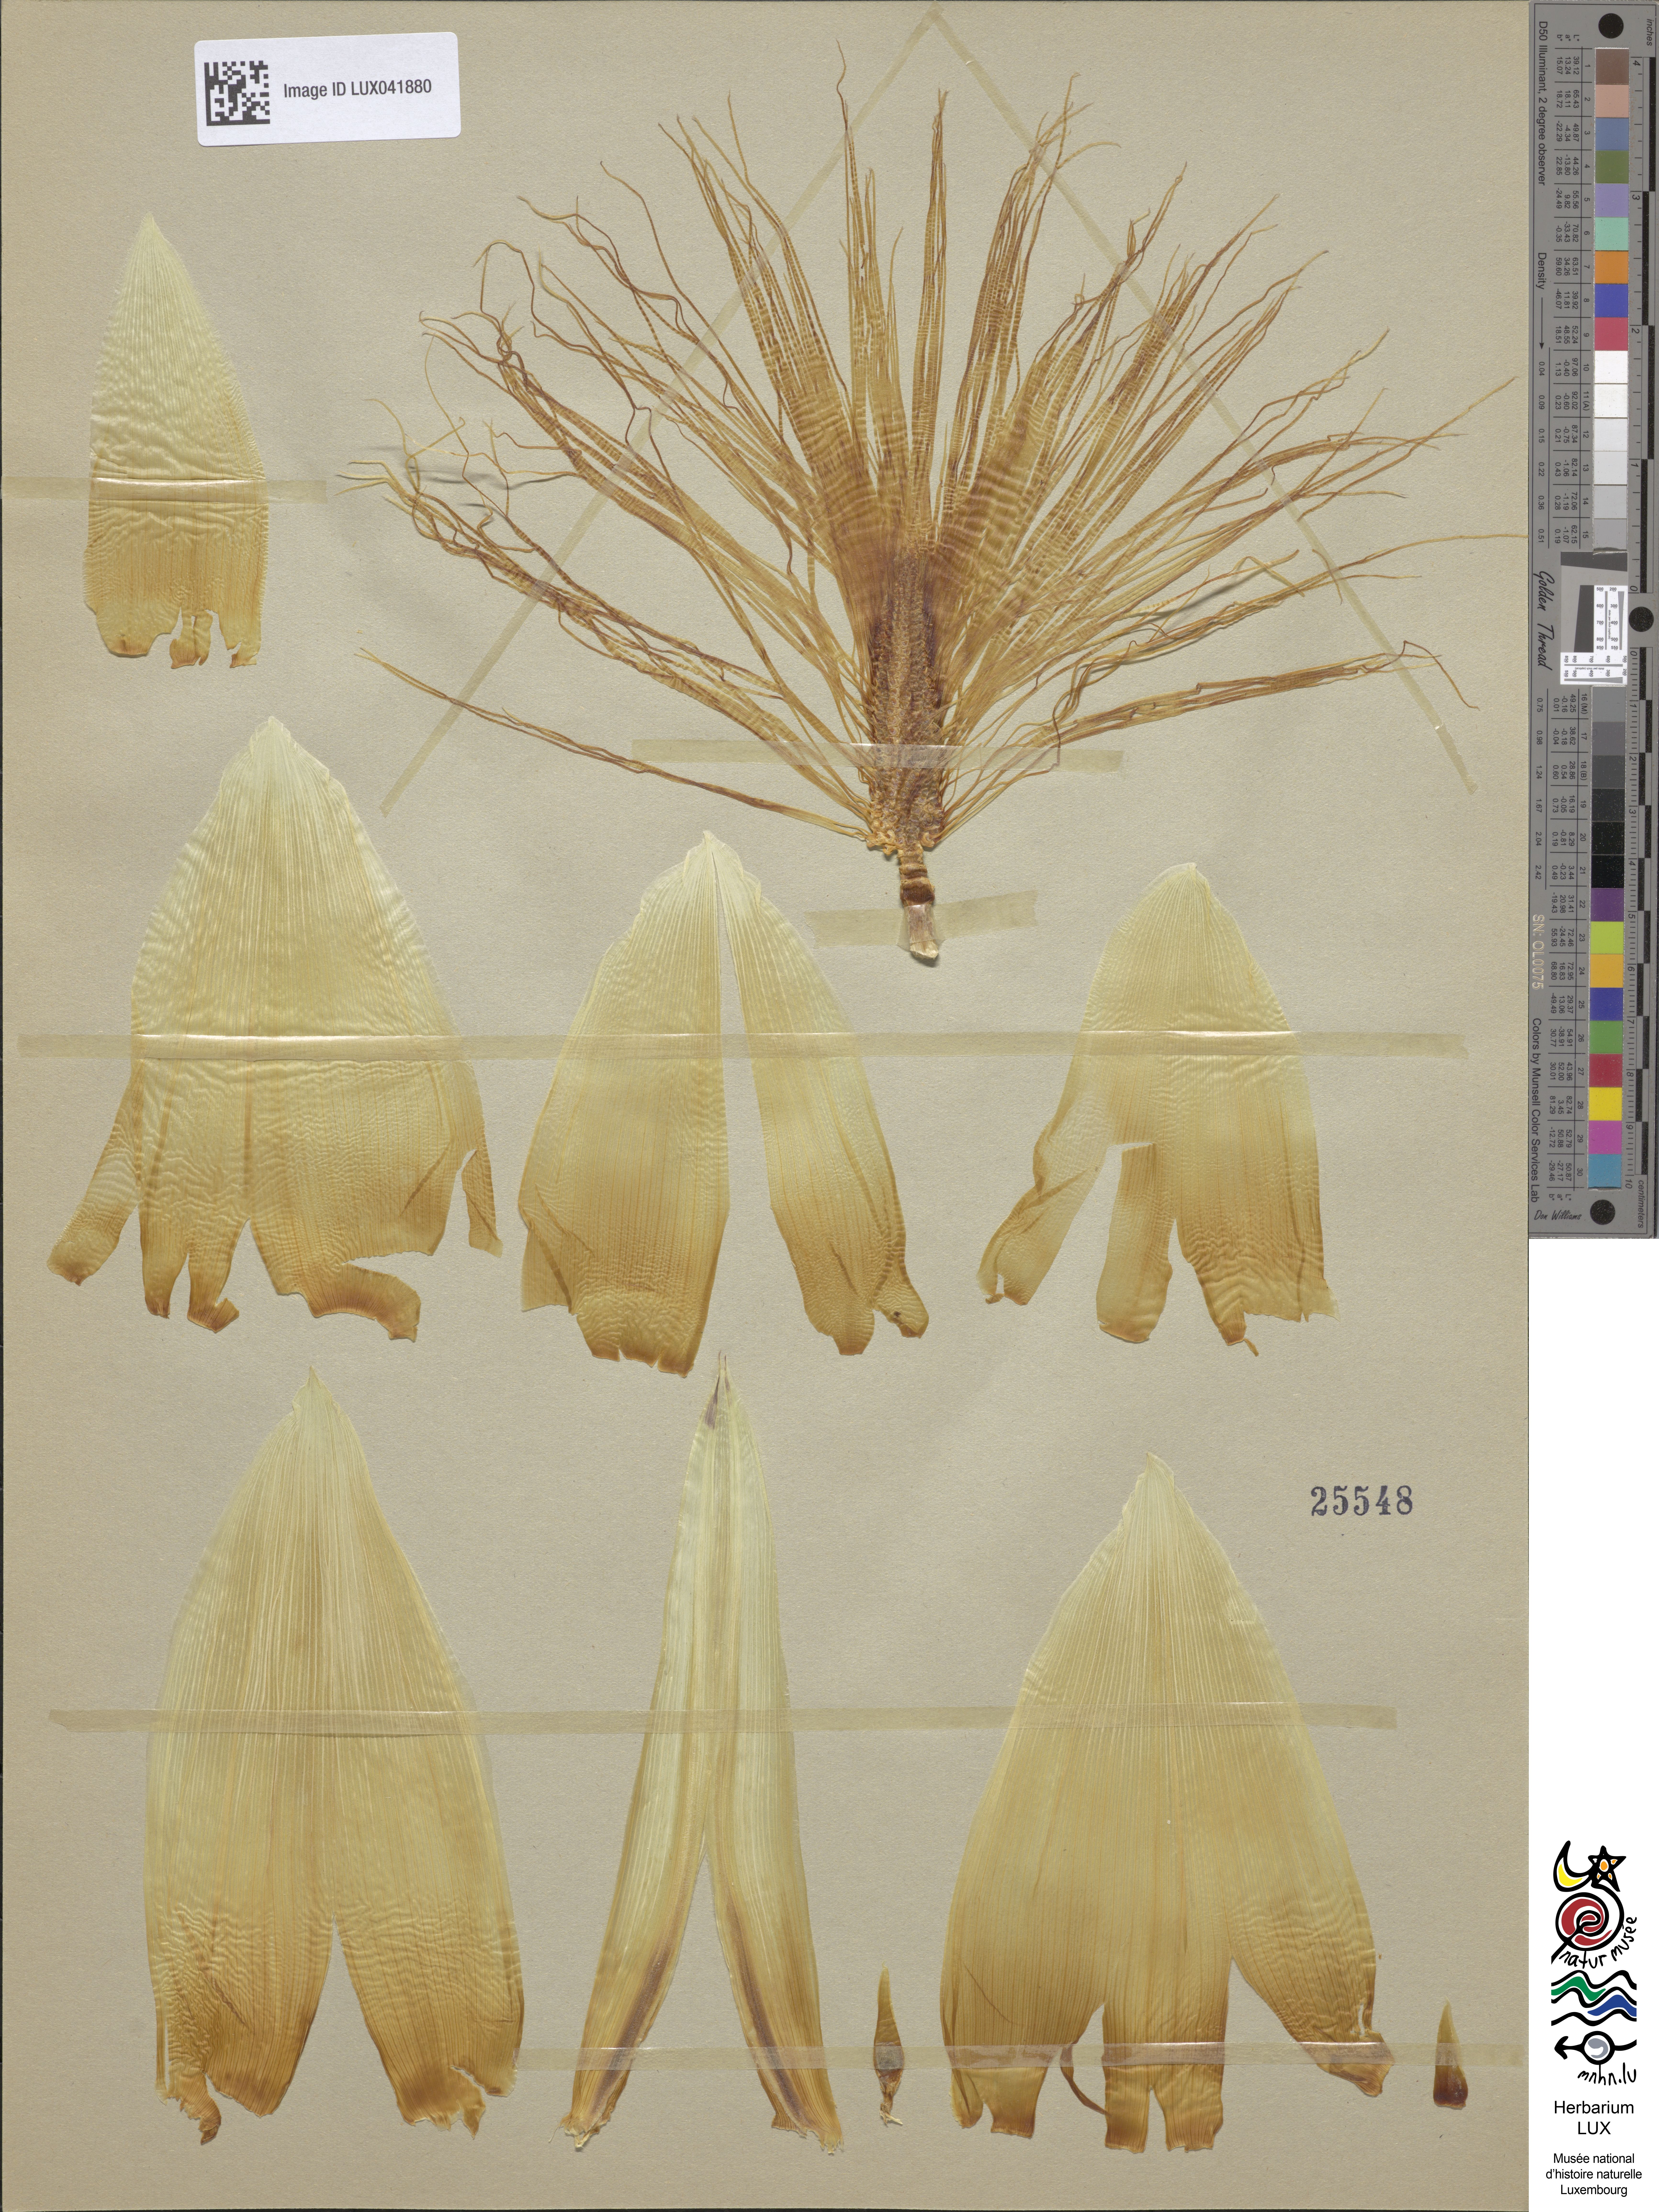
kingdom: Plantae
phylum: Tracheophyta
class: Liliopsida
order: Poales
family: Poaceae
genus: Zea
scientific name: Zea mays
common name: Maize
